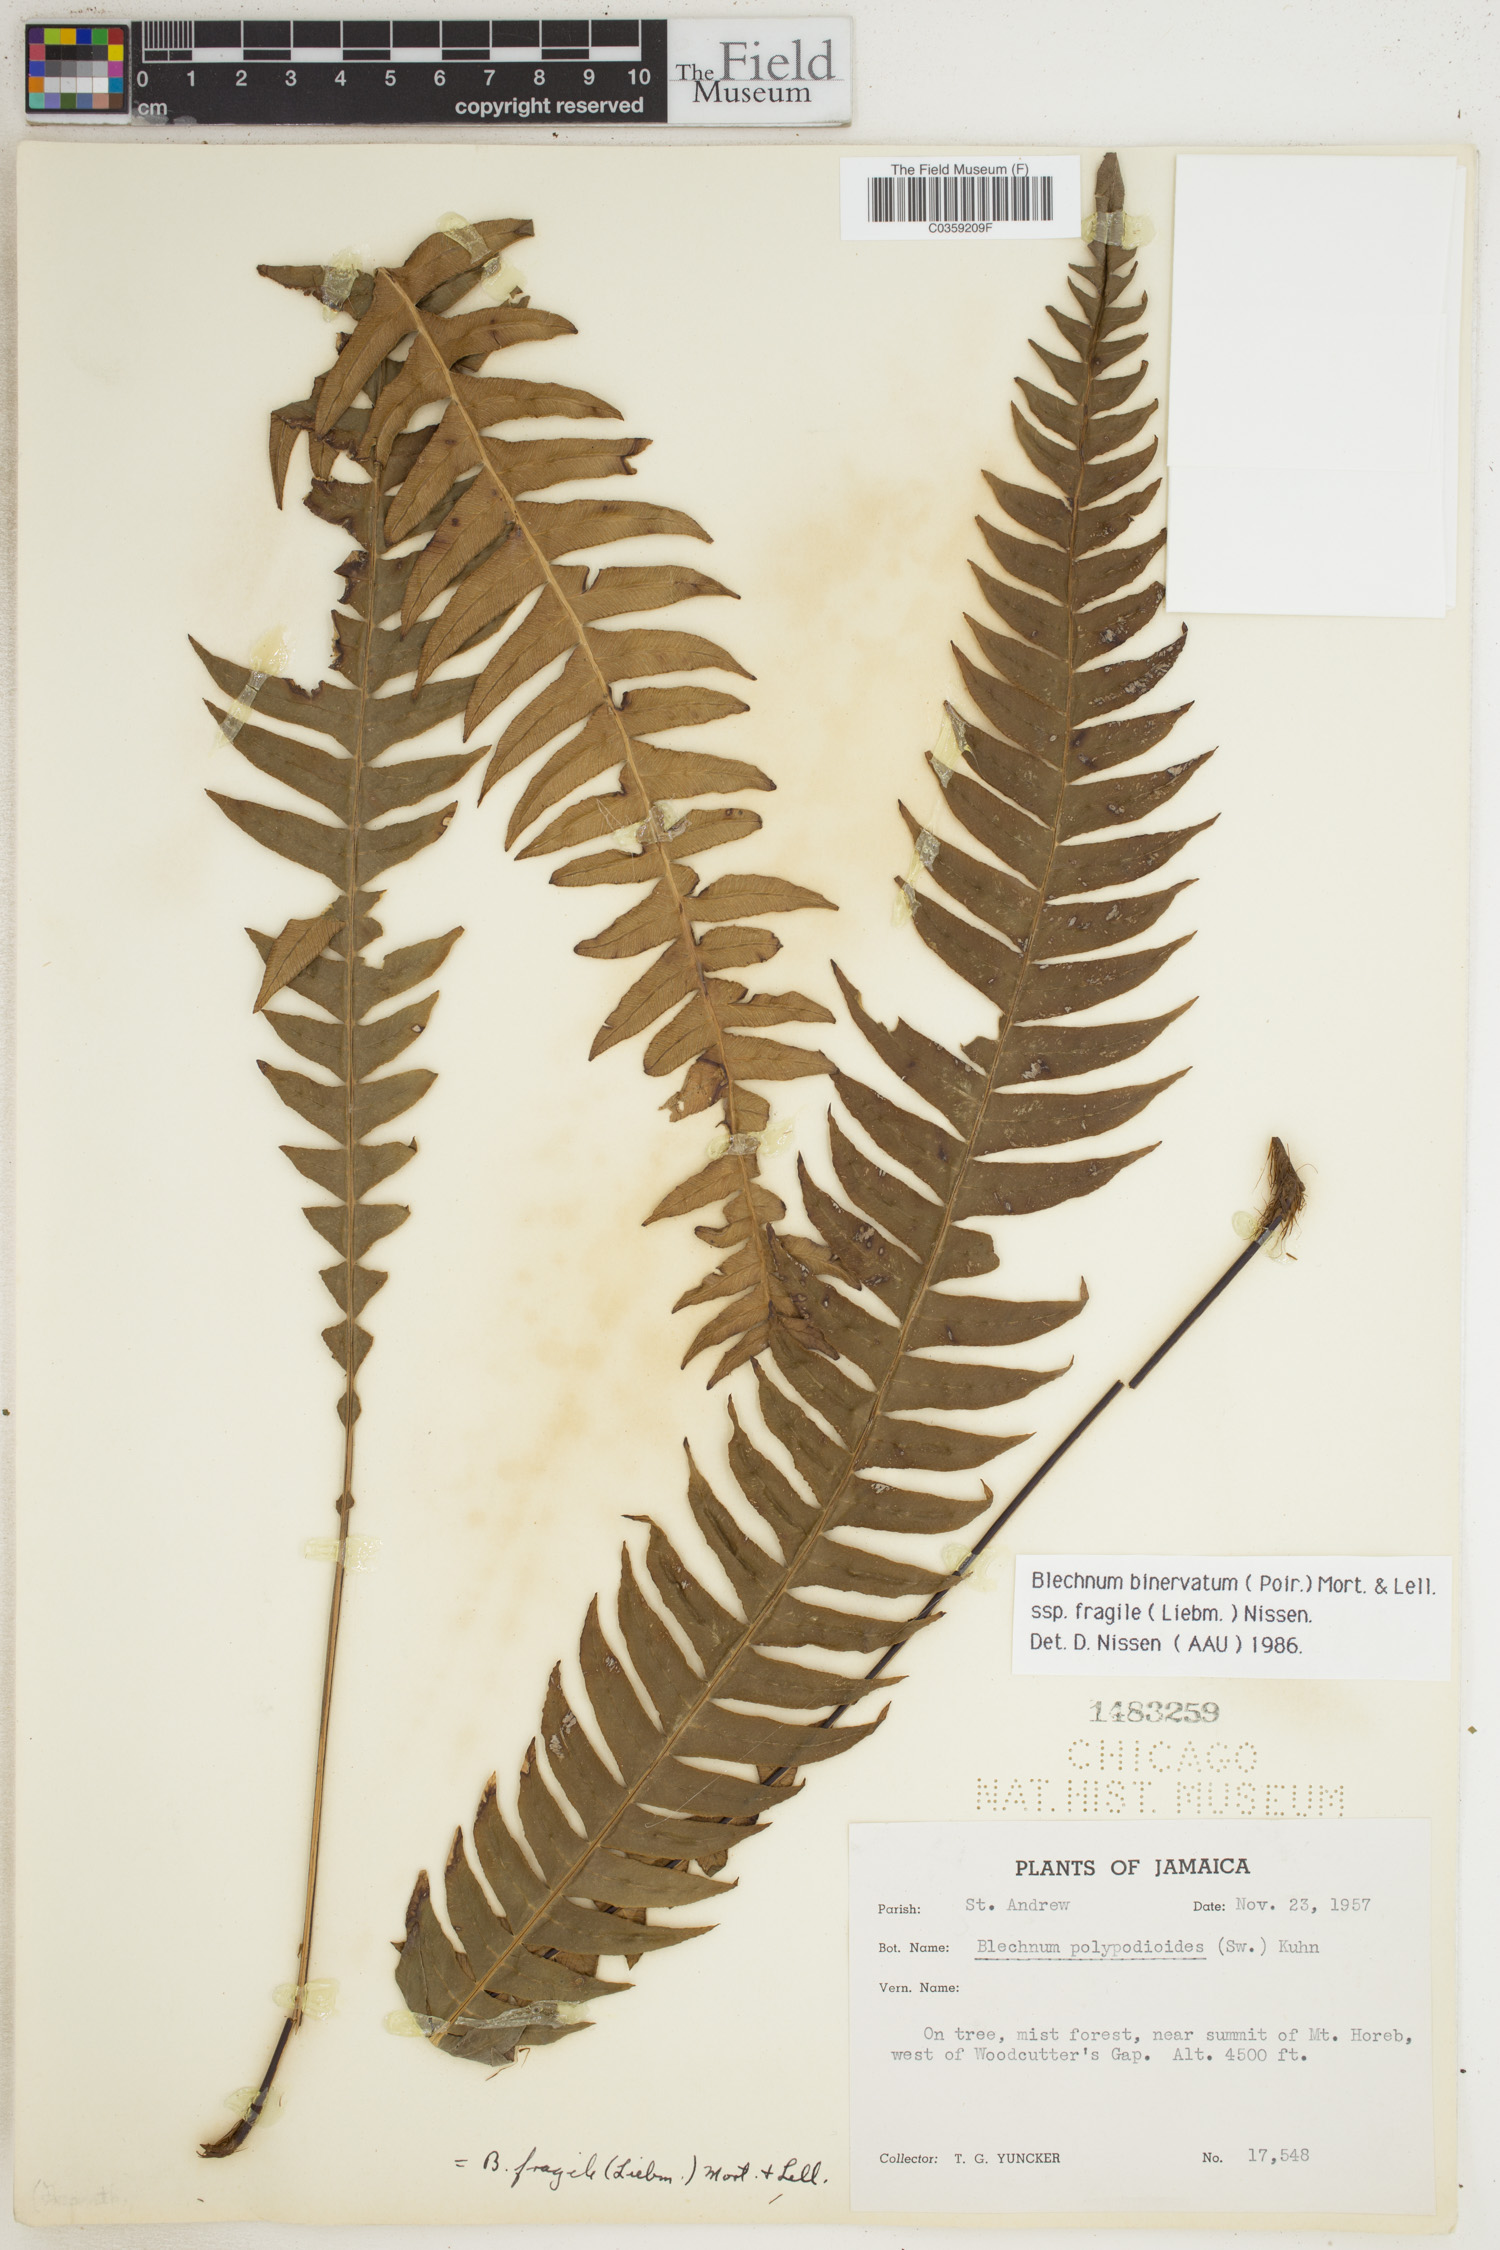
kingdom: Plantae
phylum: Tracheophyta
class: Polypodiopsida
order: Polypodiales
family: Blechnaceae
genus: Lomaridium
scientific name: Lomaridium binervatum
